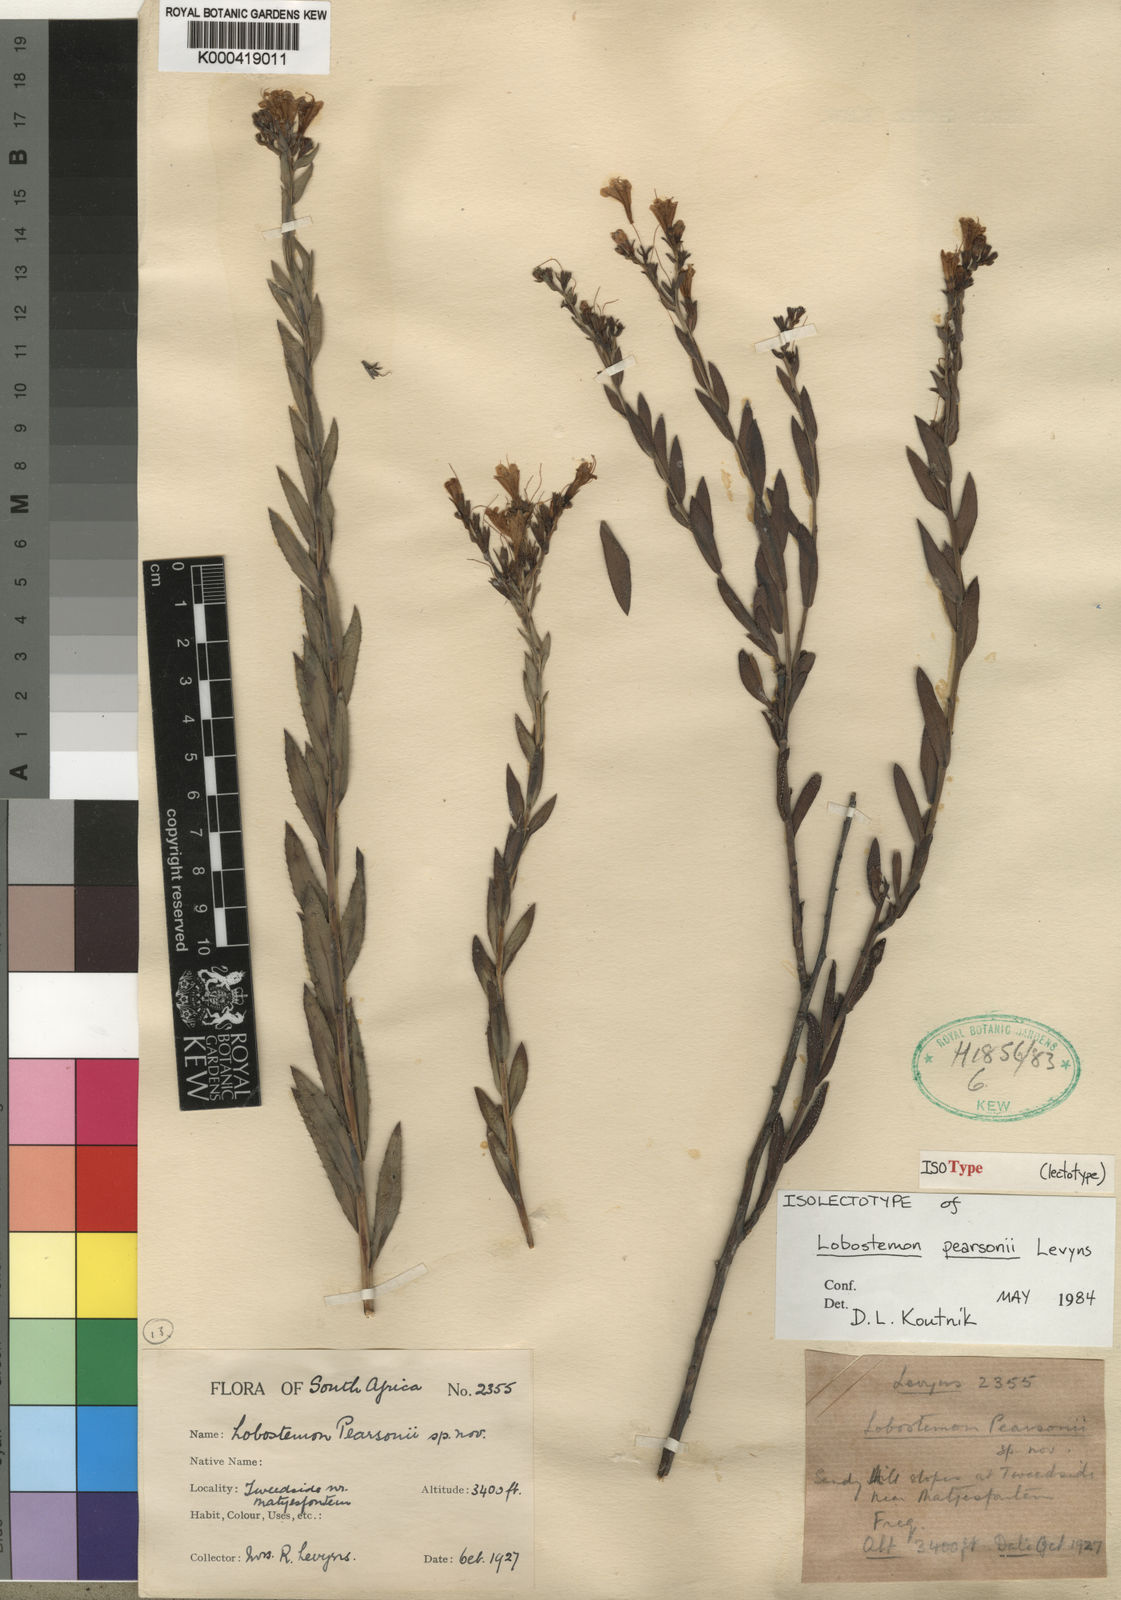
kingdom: Plantae
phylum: Tracheophyta
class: Magnoliopsida
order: Boraginales
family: Boraginaceae
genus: Lobostemon
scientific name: Lobostemon pearsonii
